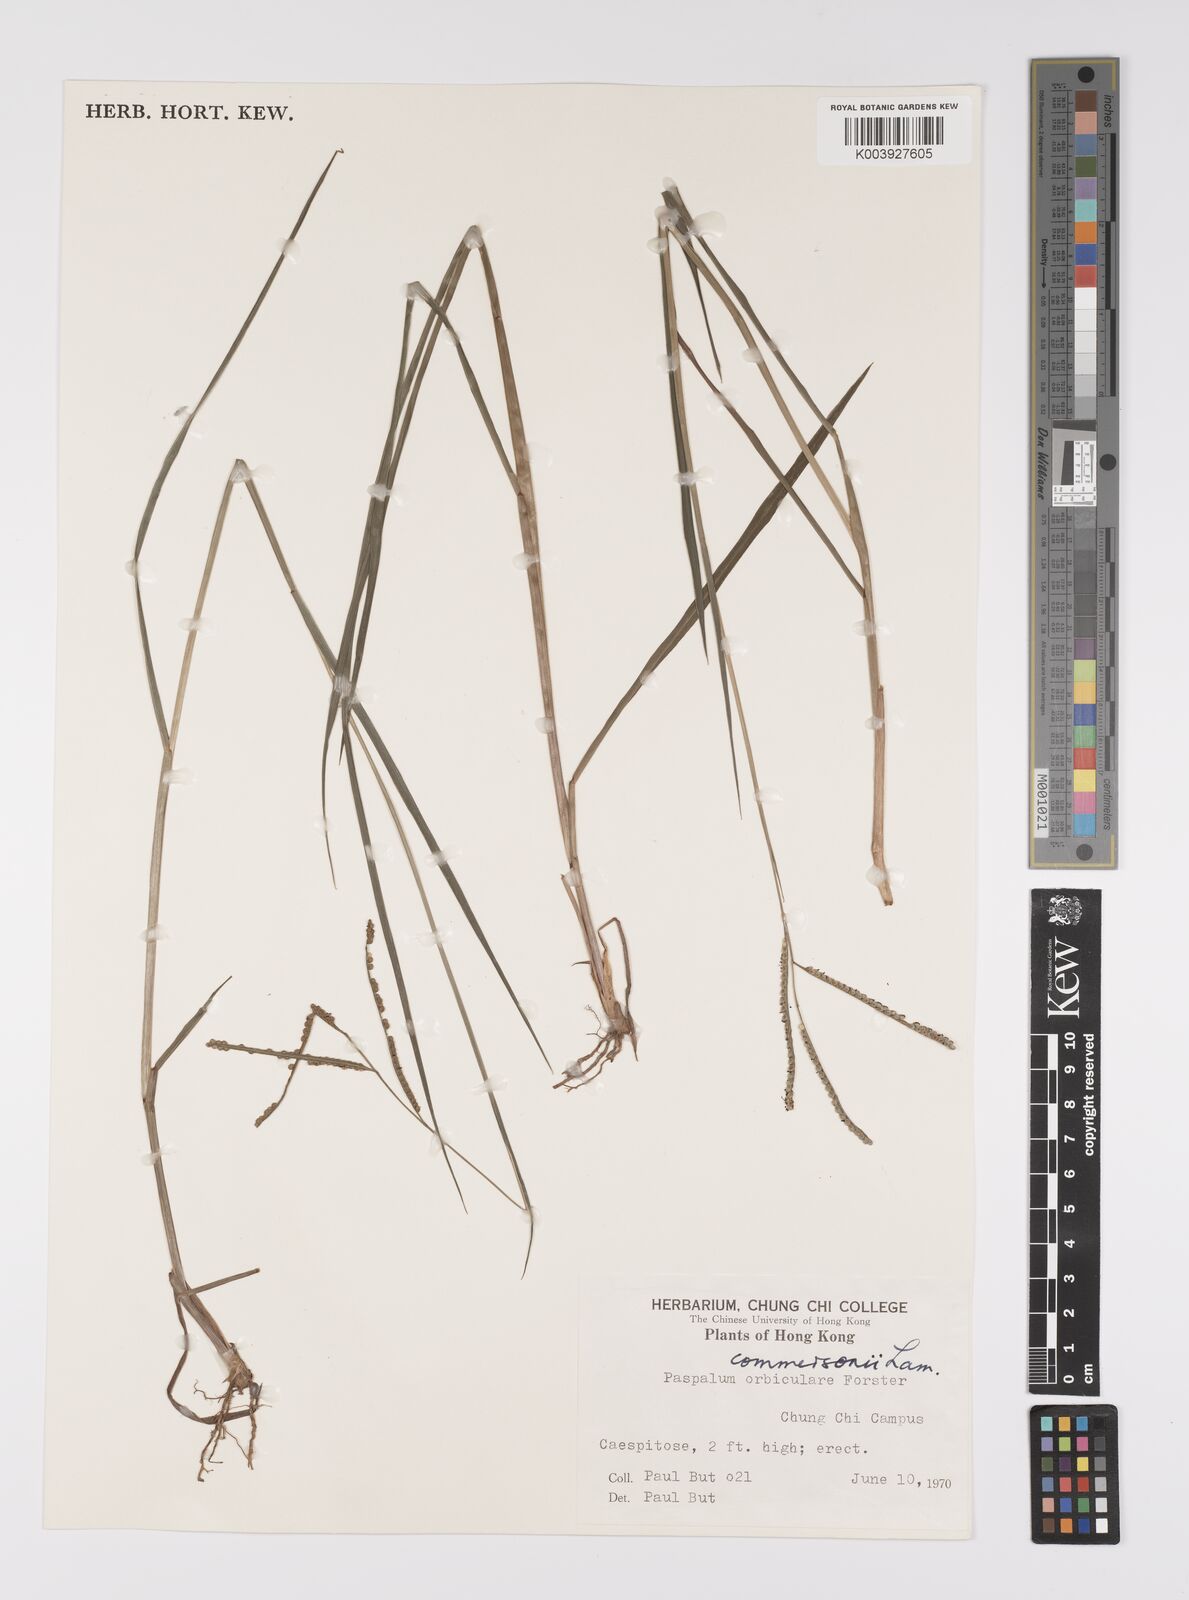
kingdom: Plantae
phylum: Tracheophyta
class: Liliopsida
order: Poales
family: Poaceae
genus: Paspalum
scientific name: Paspalum scrobiculatum
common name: Kodo millet
